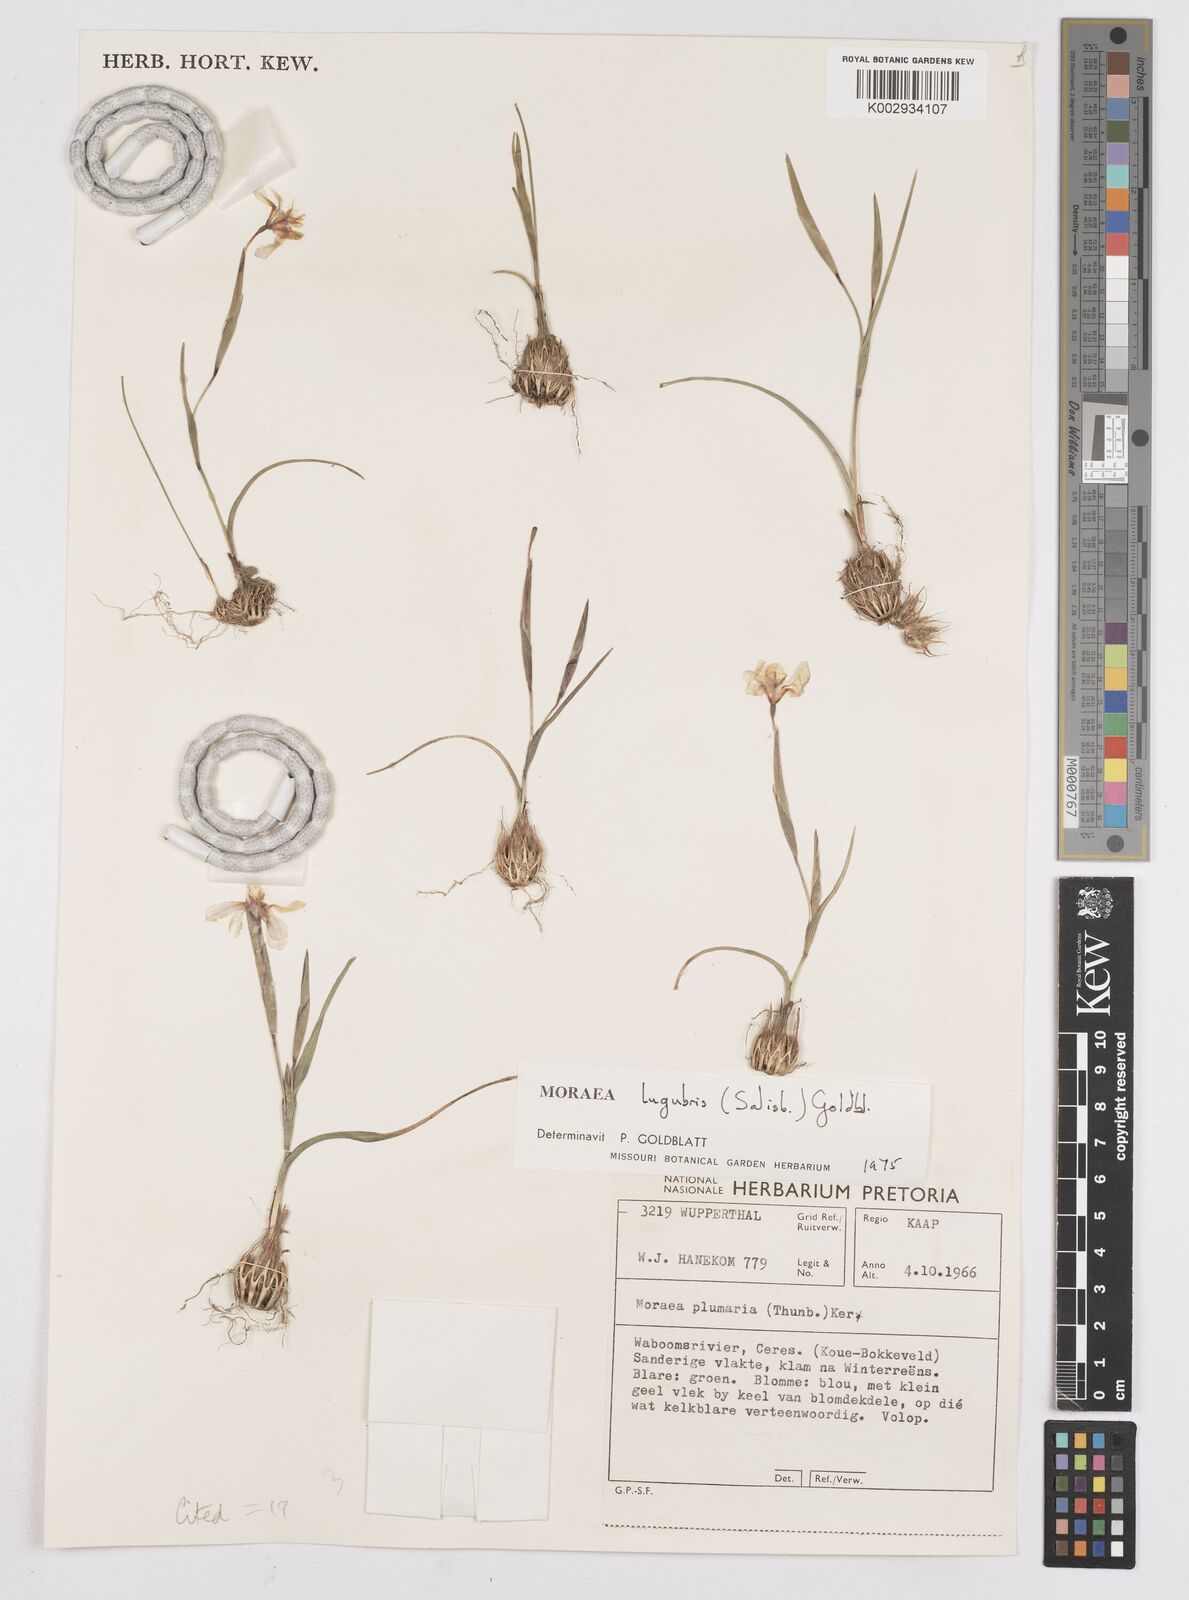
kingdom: Plantae
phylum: Tracheophyta
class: Liliopsida
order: Asparagales
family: Iridaceae
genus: Moraea
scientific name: Moraea lugubris
